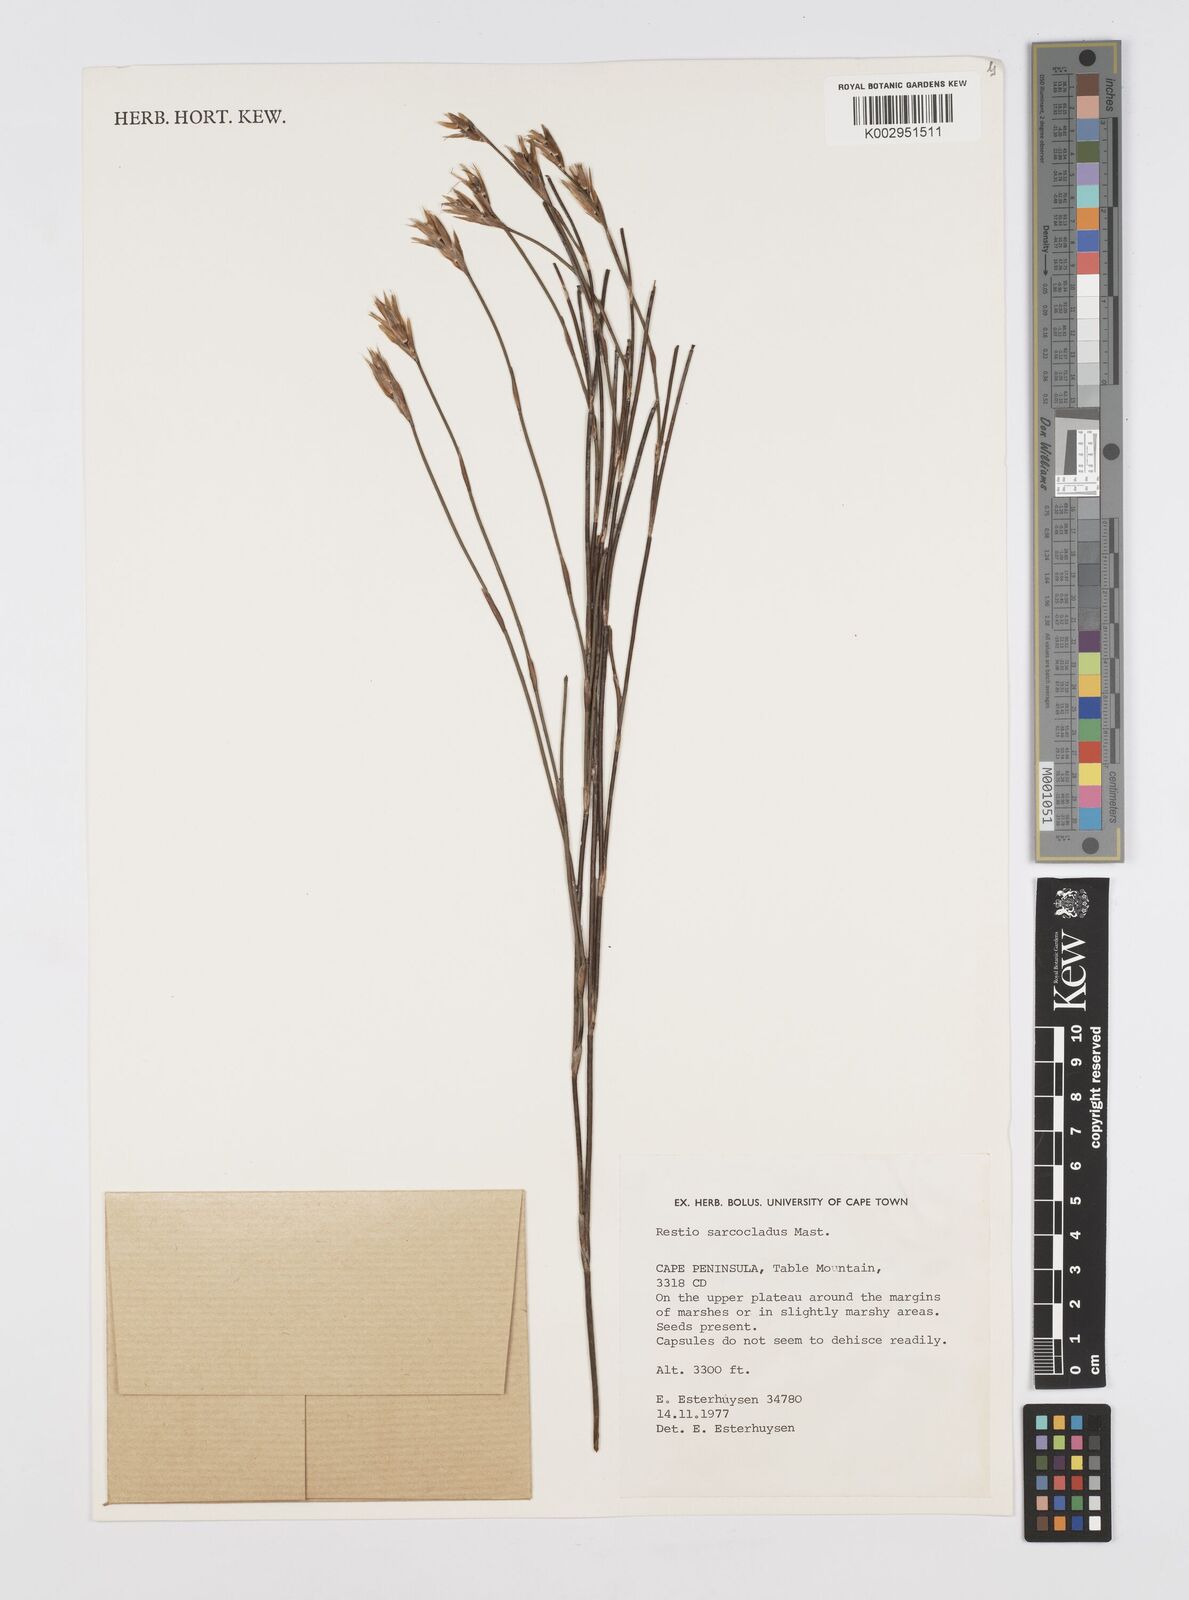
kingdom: Plantae
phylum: Tracheophyta
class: Liliopsida
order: Poales
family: Restionaceae
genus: Restio
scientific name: Restio saroclados
